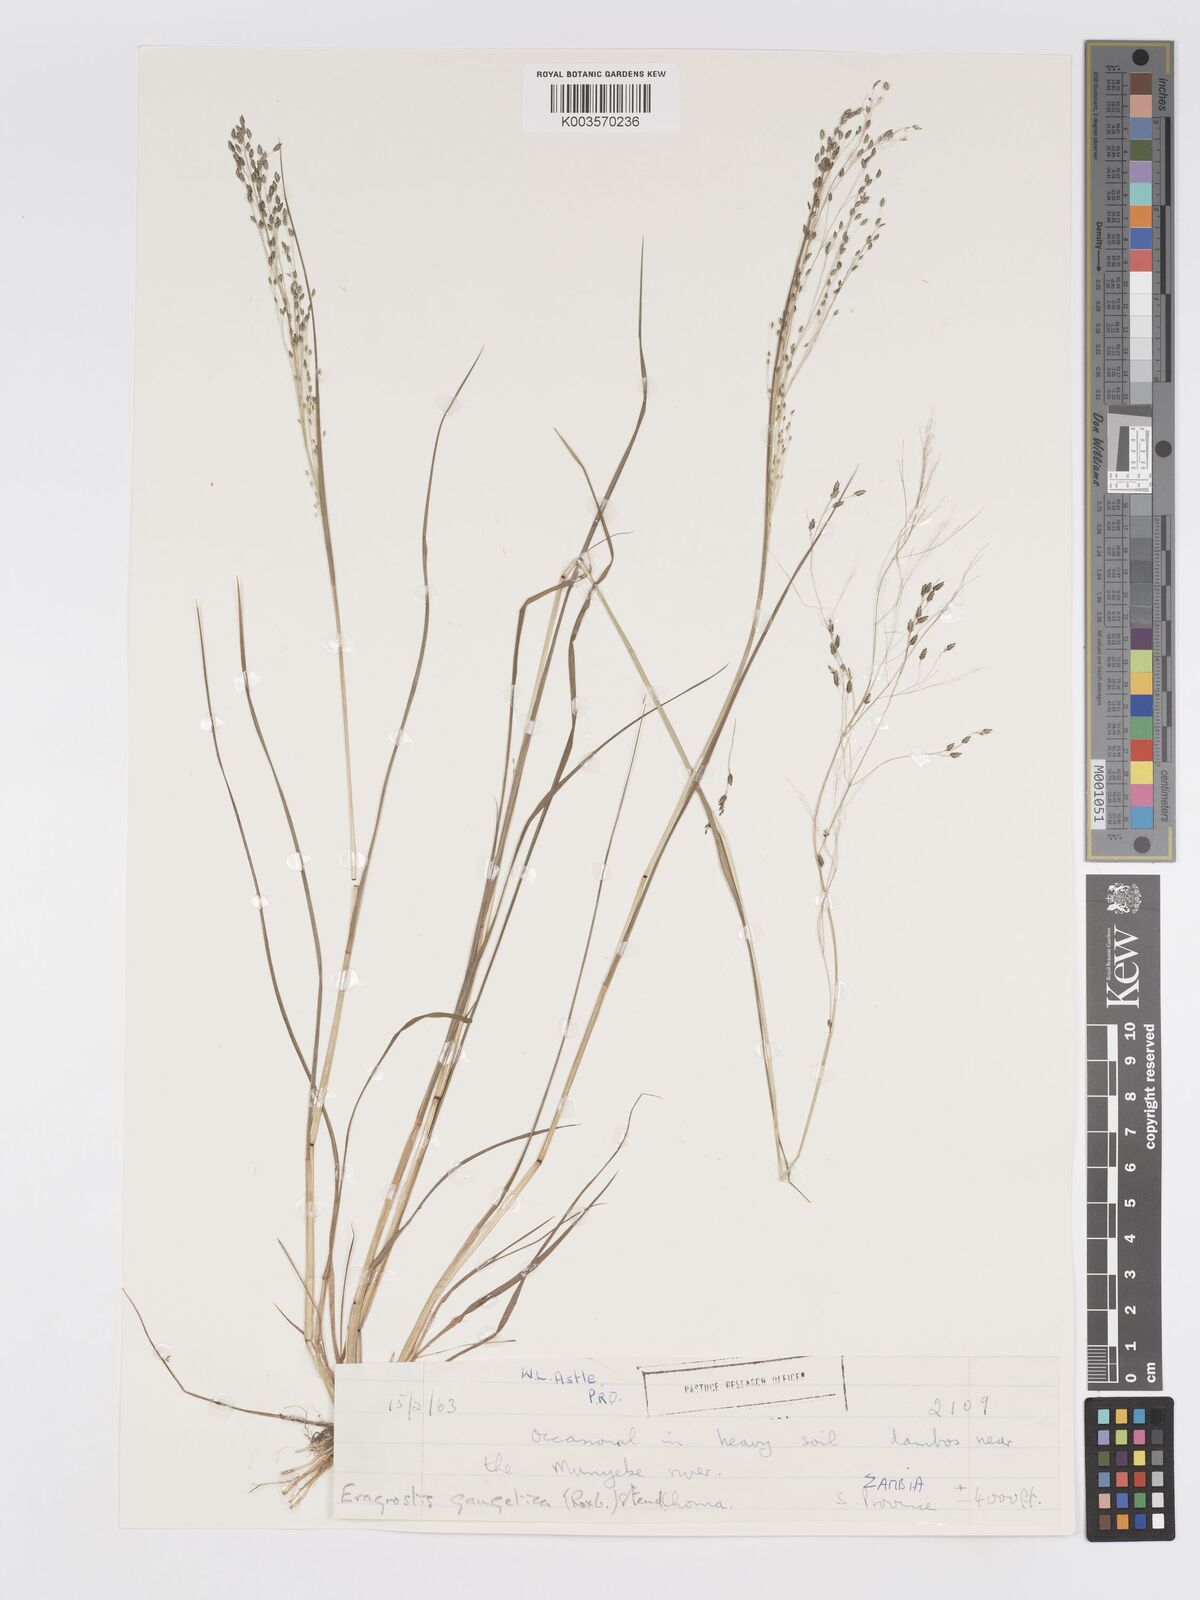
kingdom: Plantae
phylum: Tracheophyta
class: Liliopsida
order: Poales
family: Poaceae
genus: Eragrostis
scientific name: Eragrostis gangetica
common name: Slimflower lovegrass
